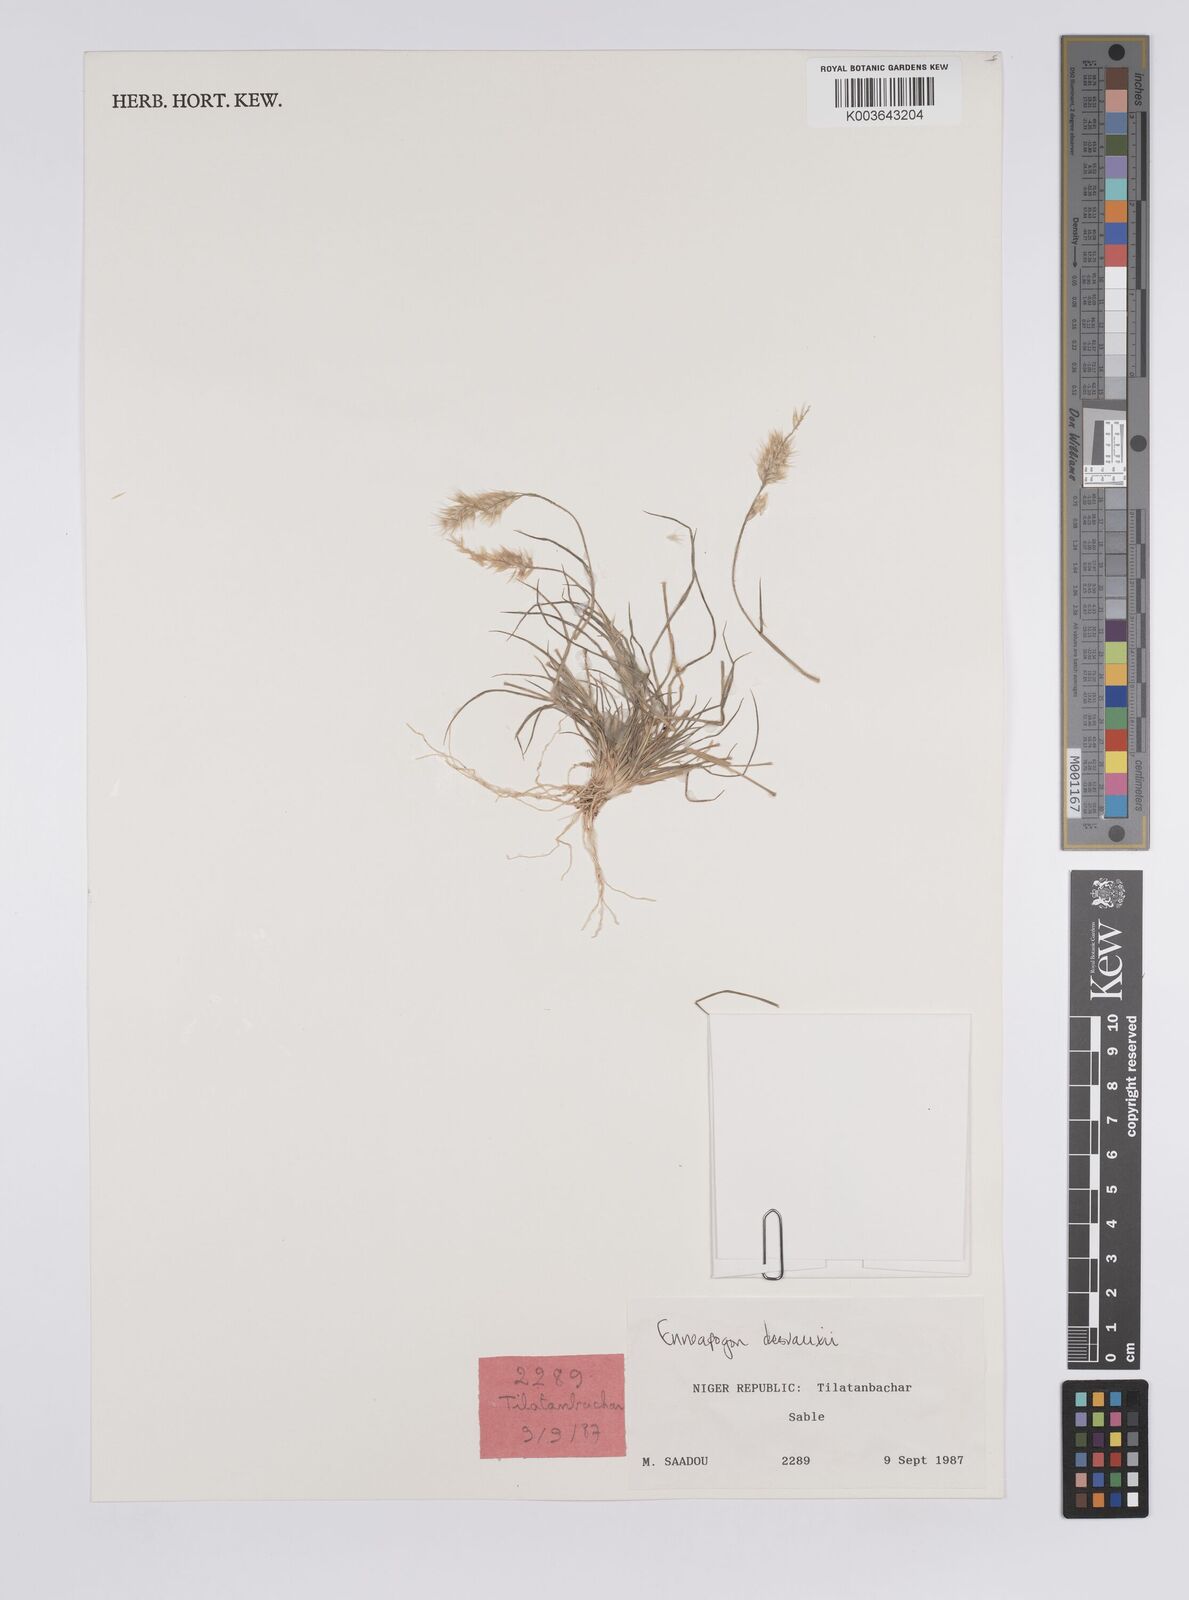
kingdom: Plantae
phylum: Tracheophyta
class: Liliopsida
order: Poales
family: Poaceae
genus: Enneapogon
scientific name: Enneapogon desvauxii
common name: Feather pappus grass
